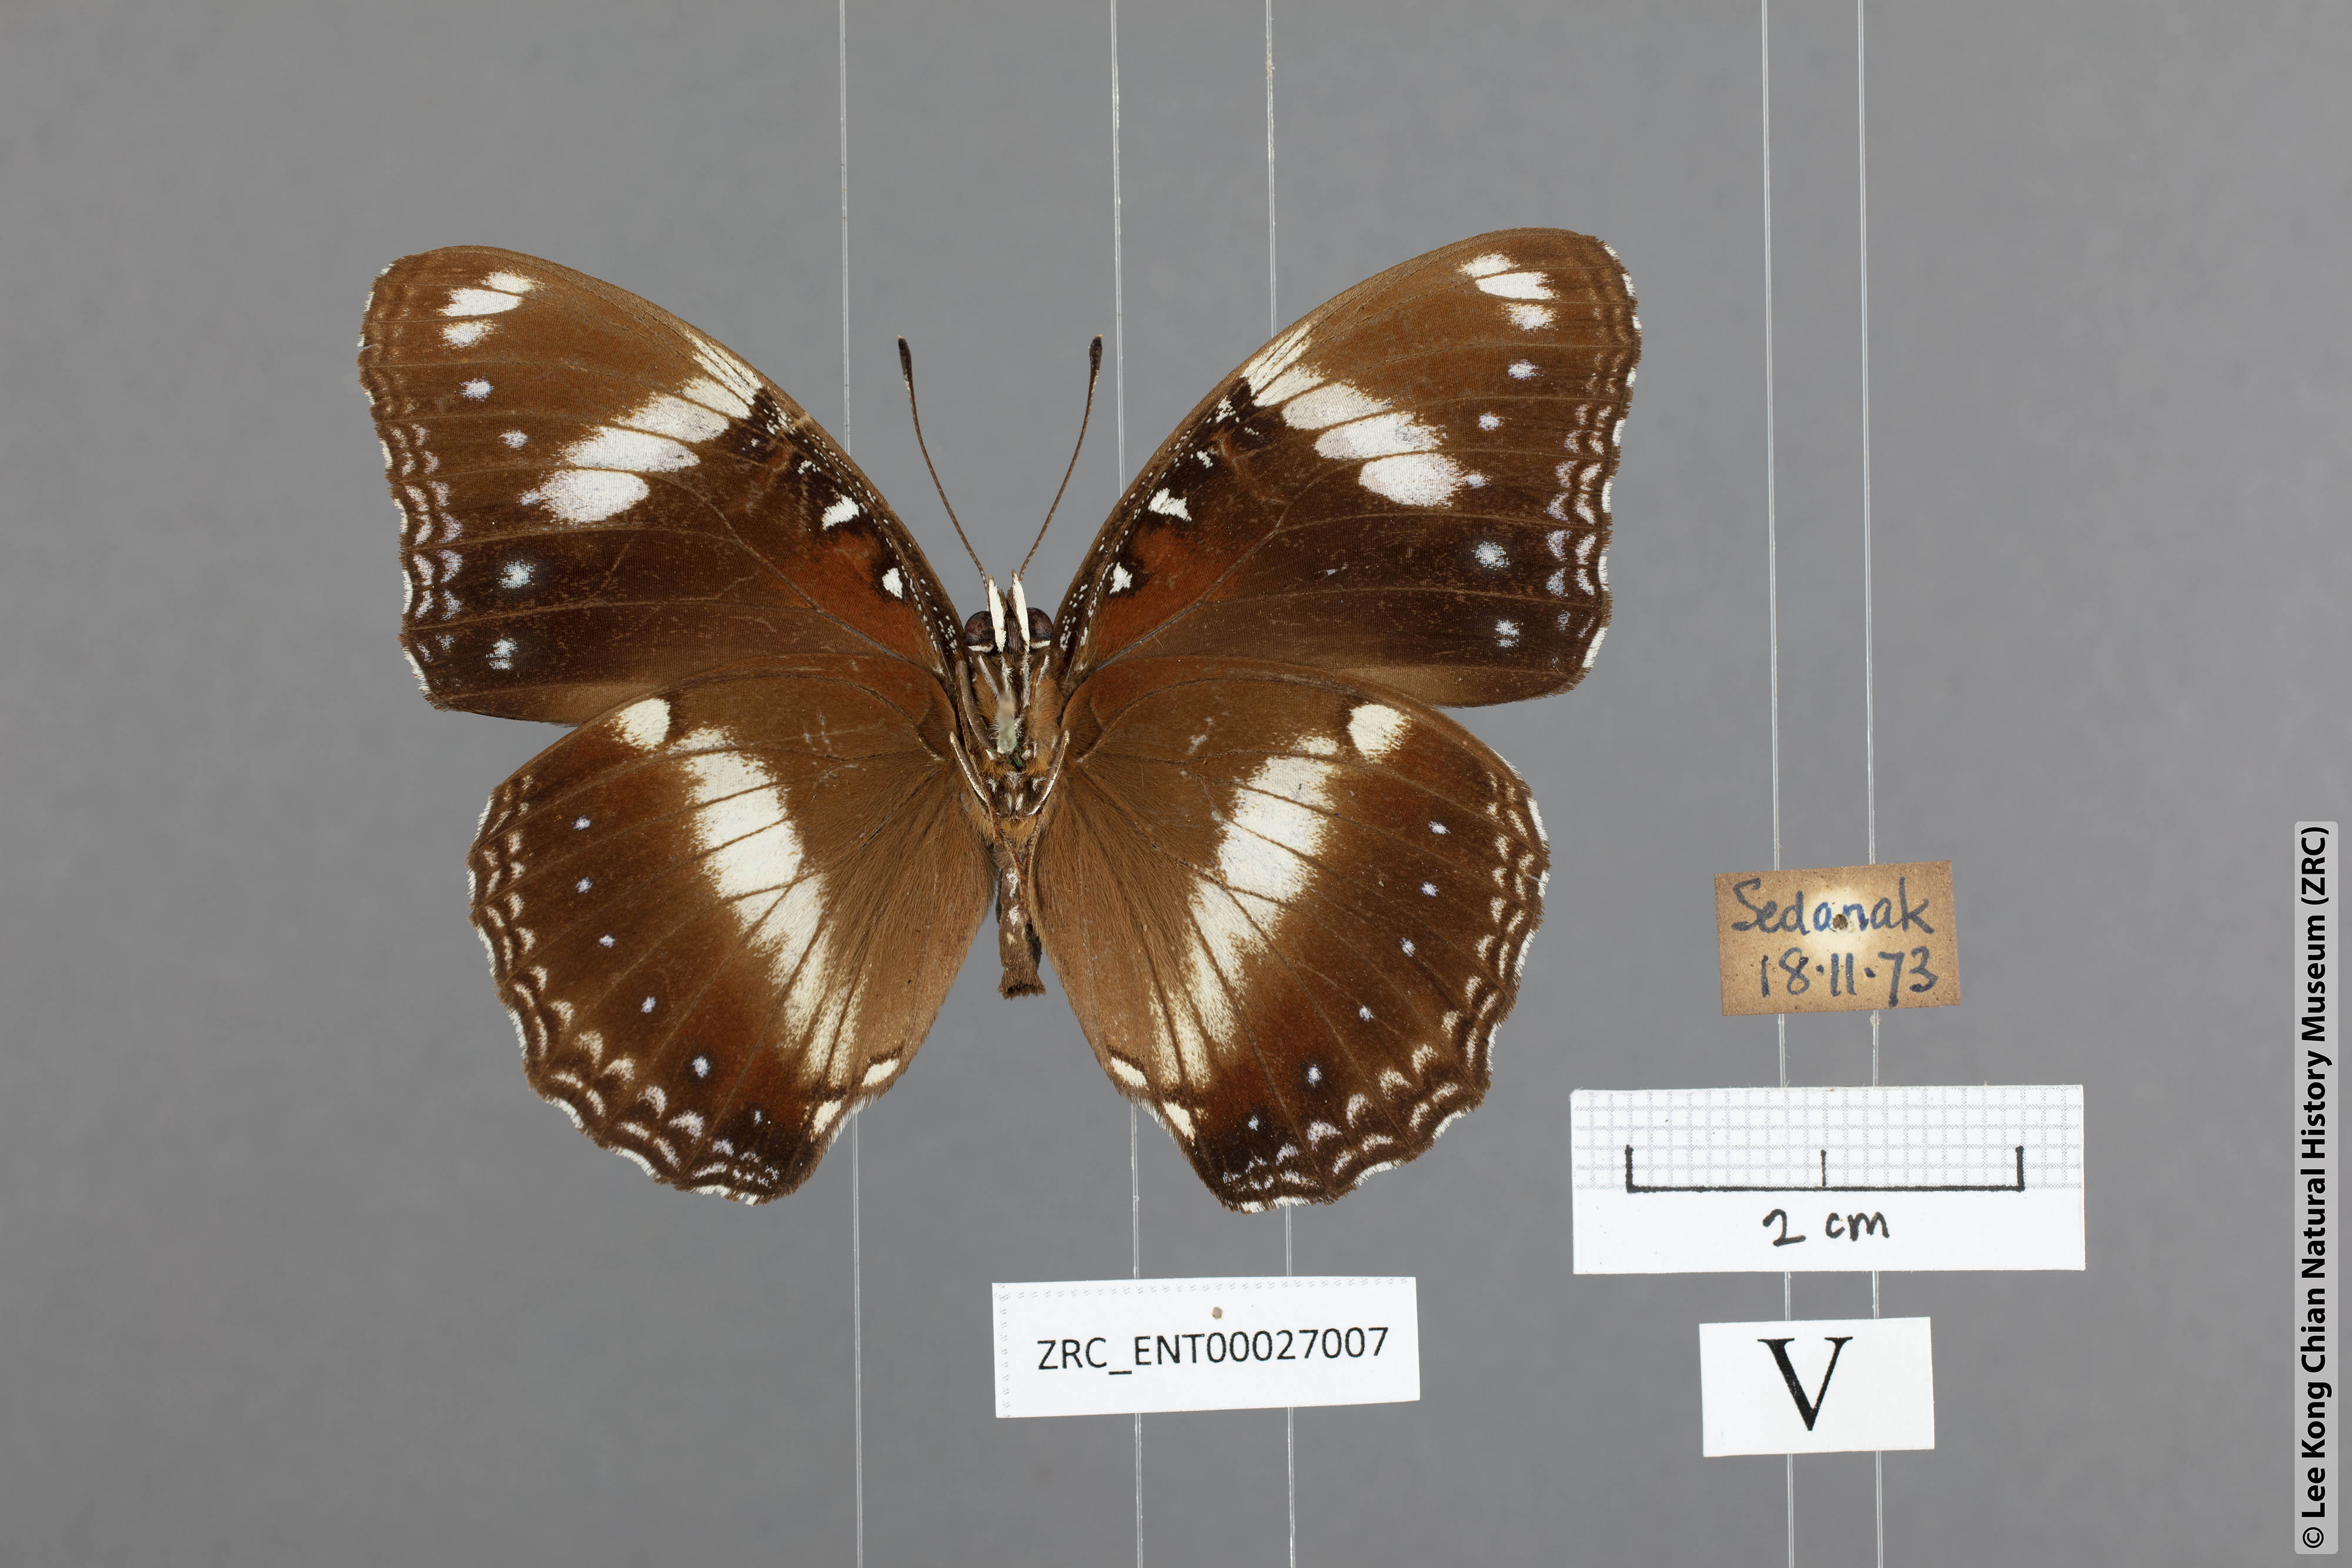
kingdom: Animalia
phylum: Arthropoda
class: Insecta
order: Lepidoptera
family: Nymphalidae
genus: Hypolimnas
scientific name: Hypolimnas bolina
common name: Great eggfly
